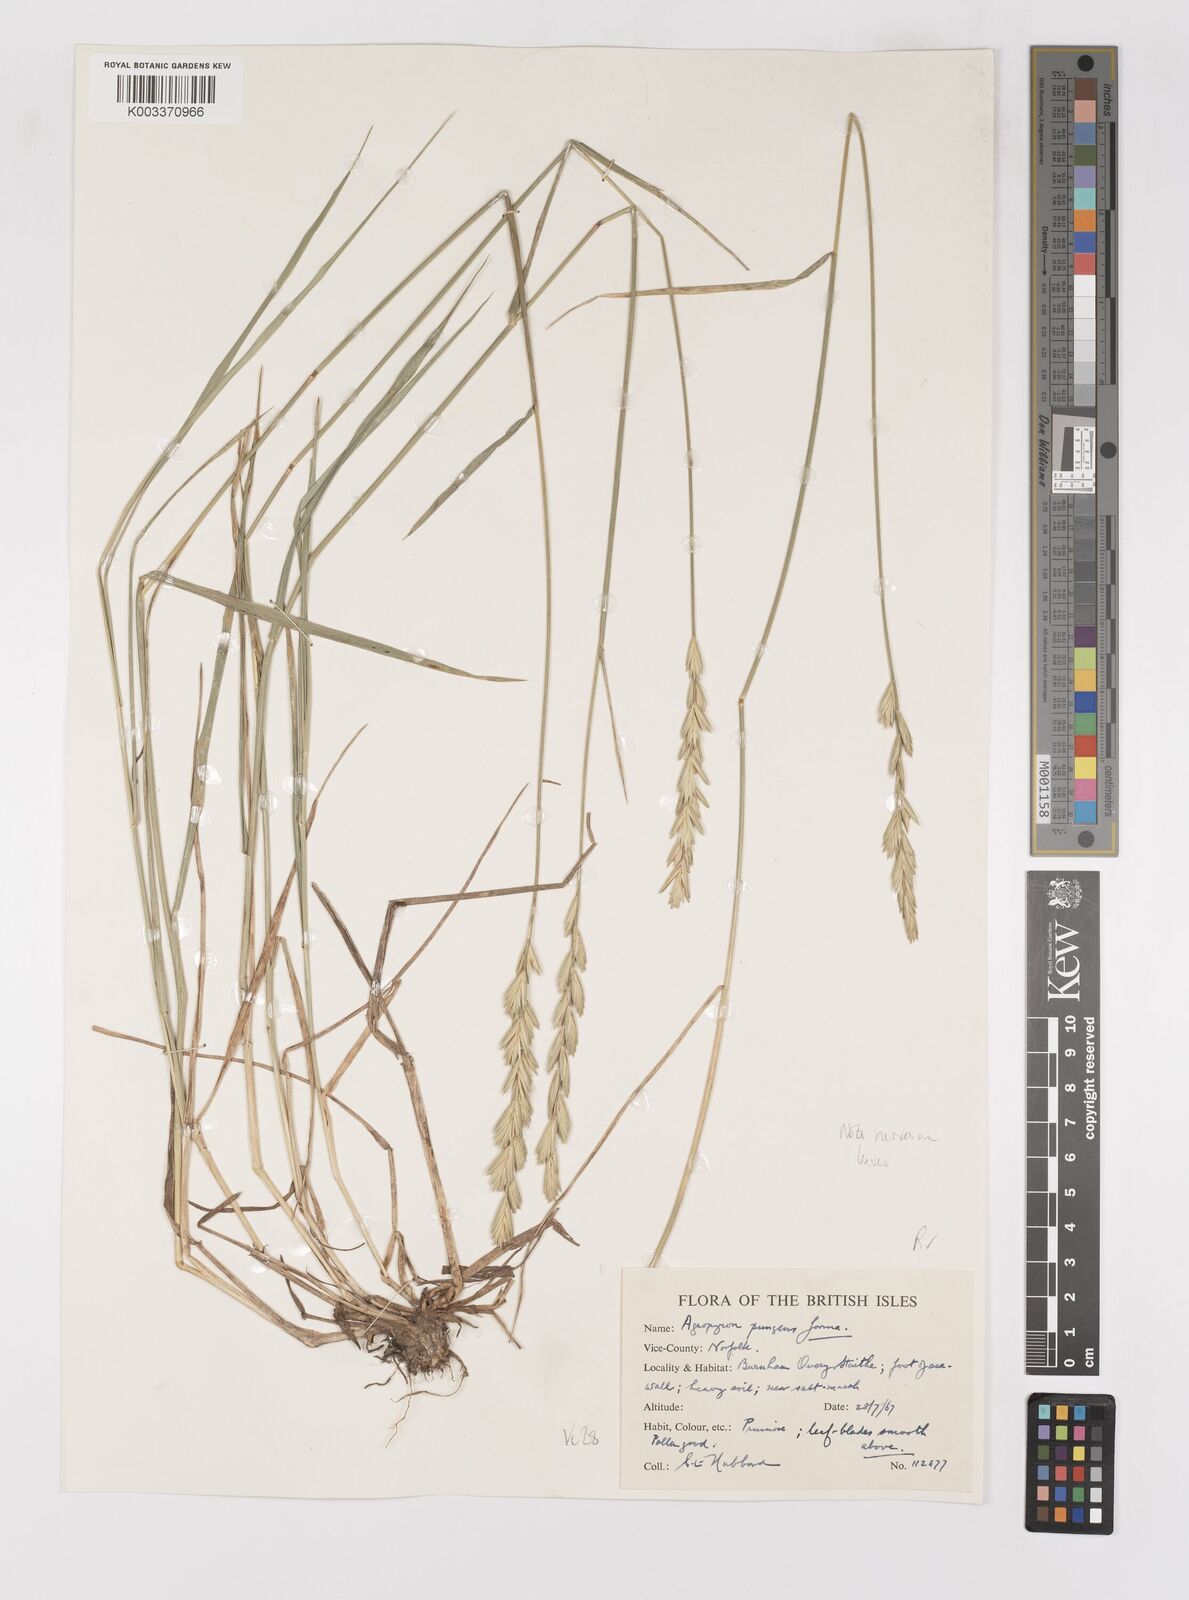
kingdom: Plantae
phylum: Tracheophyta
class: Liliopsida
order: Poales
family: Poaceae
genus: Elymus
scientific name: Elymus repens
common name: Quackgrass
